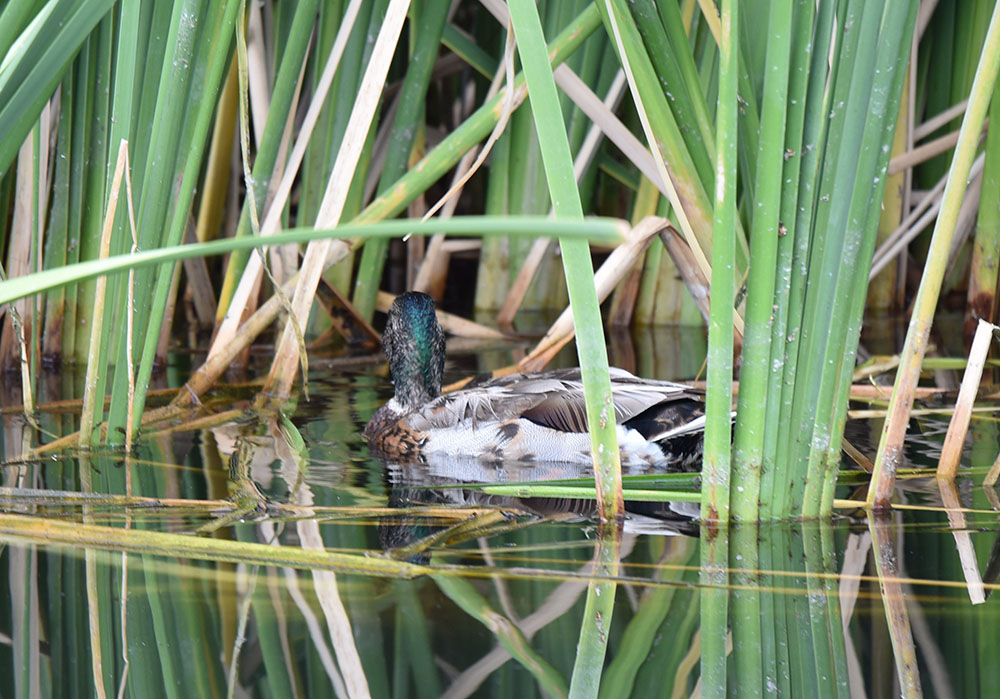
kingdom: Animalia
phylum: Chordata
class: Aves
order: Anseriformes
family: Anatidae
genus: Anas
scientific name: Anas platyrhynchos
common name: Mallard
